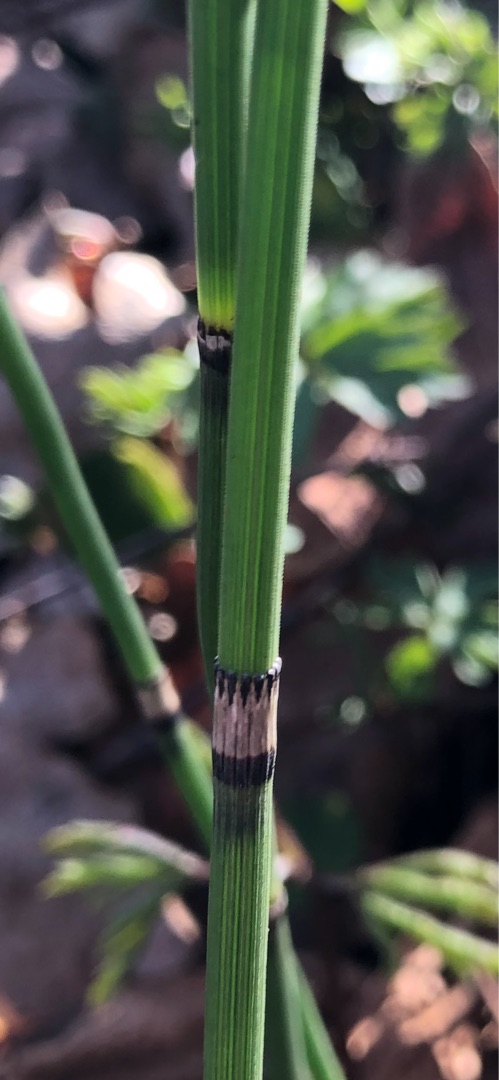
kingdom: Plantae
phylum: Tracheophyta
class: Polypodiopsida
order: Equisetales
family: Equisetaceae
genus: Equisetum
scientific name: Equisetum hyemale
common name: Skavgræs
